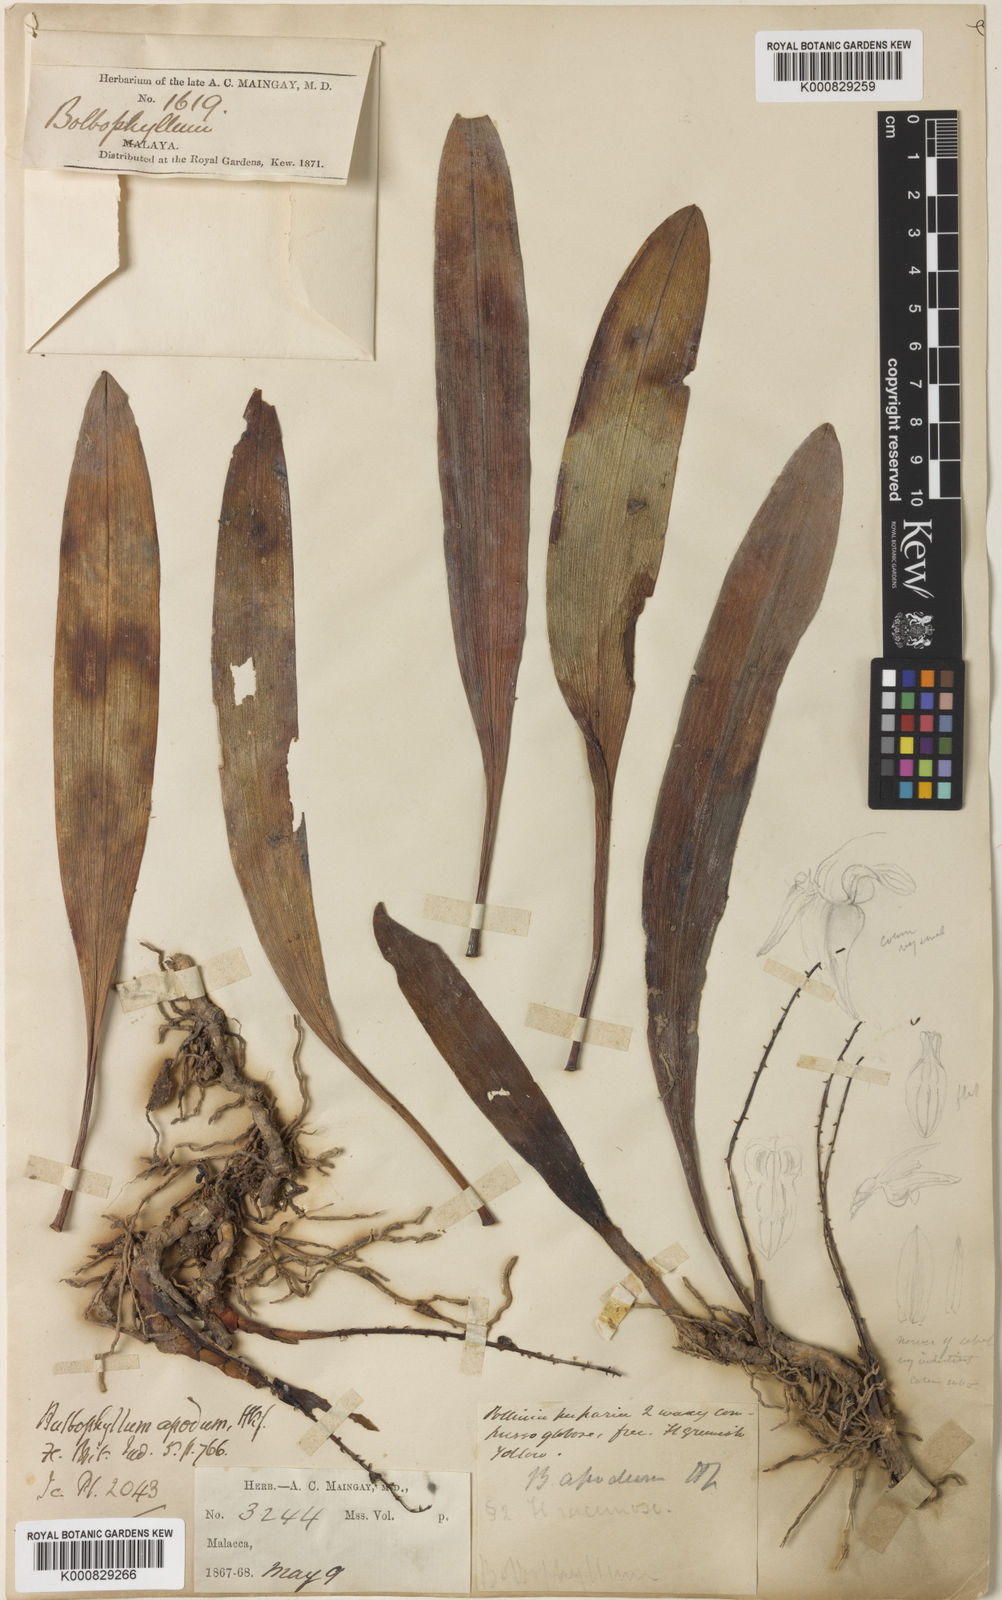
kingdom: Plantae
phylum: Tracheophyta
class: Liliopsida
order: Asparagales
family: Orchidaceae
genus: Bulbophyllum
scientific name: Bulbophyllum apodum
